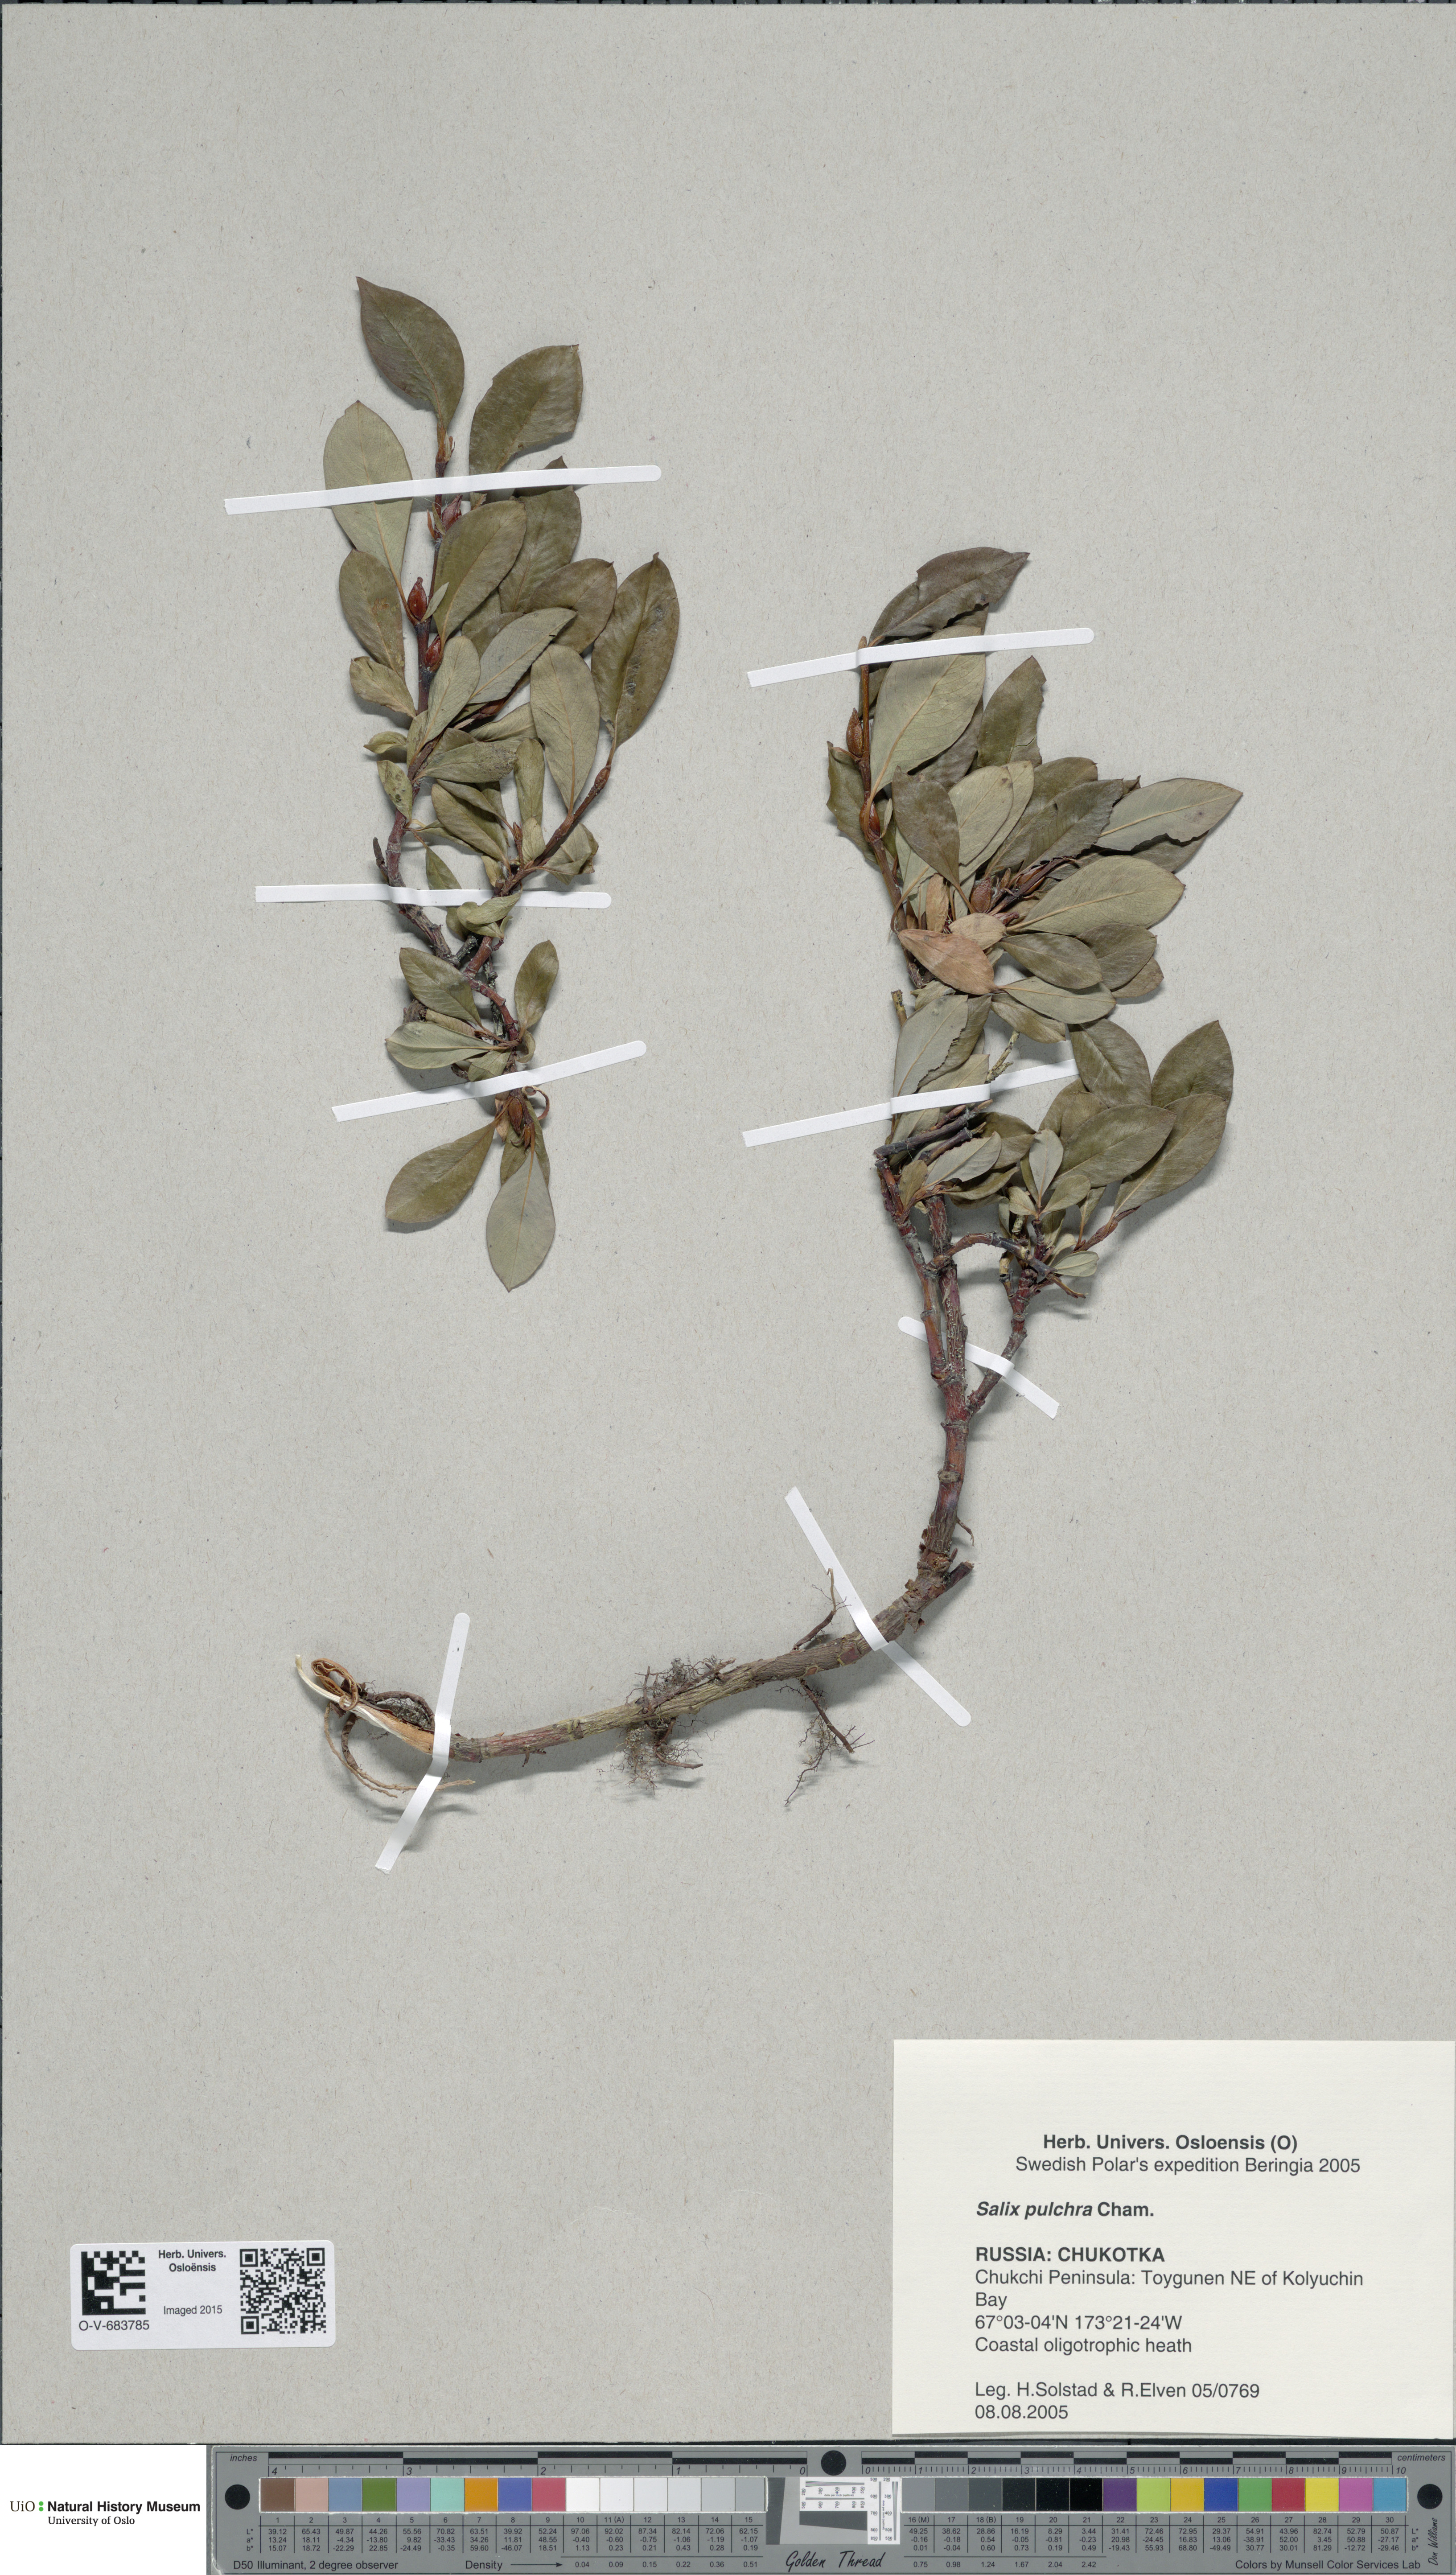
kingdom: Plantae
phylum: Tracheophyta
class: Magnoliopsida
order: Malpighiales
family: Salicaceae
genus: Salix
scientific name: Salix pulchra
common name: Diamond-leaved willow
